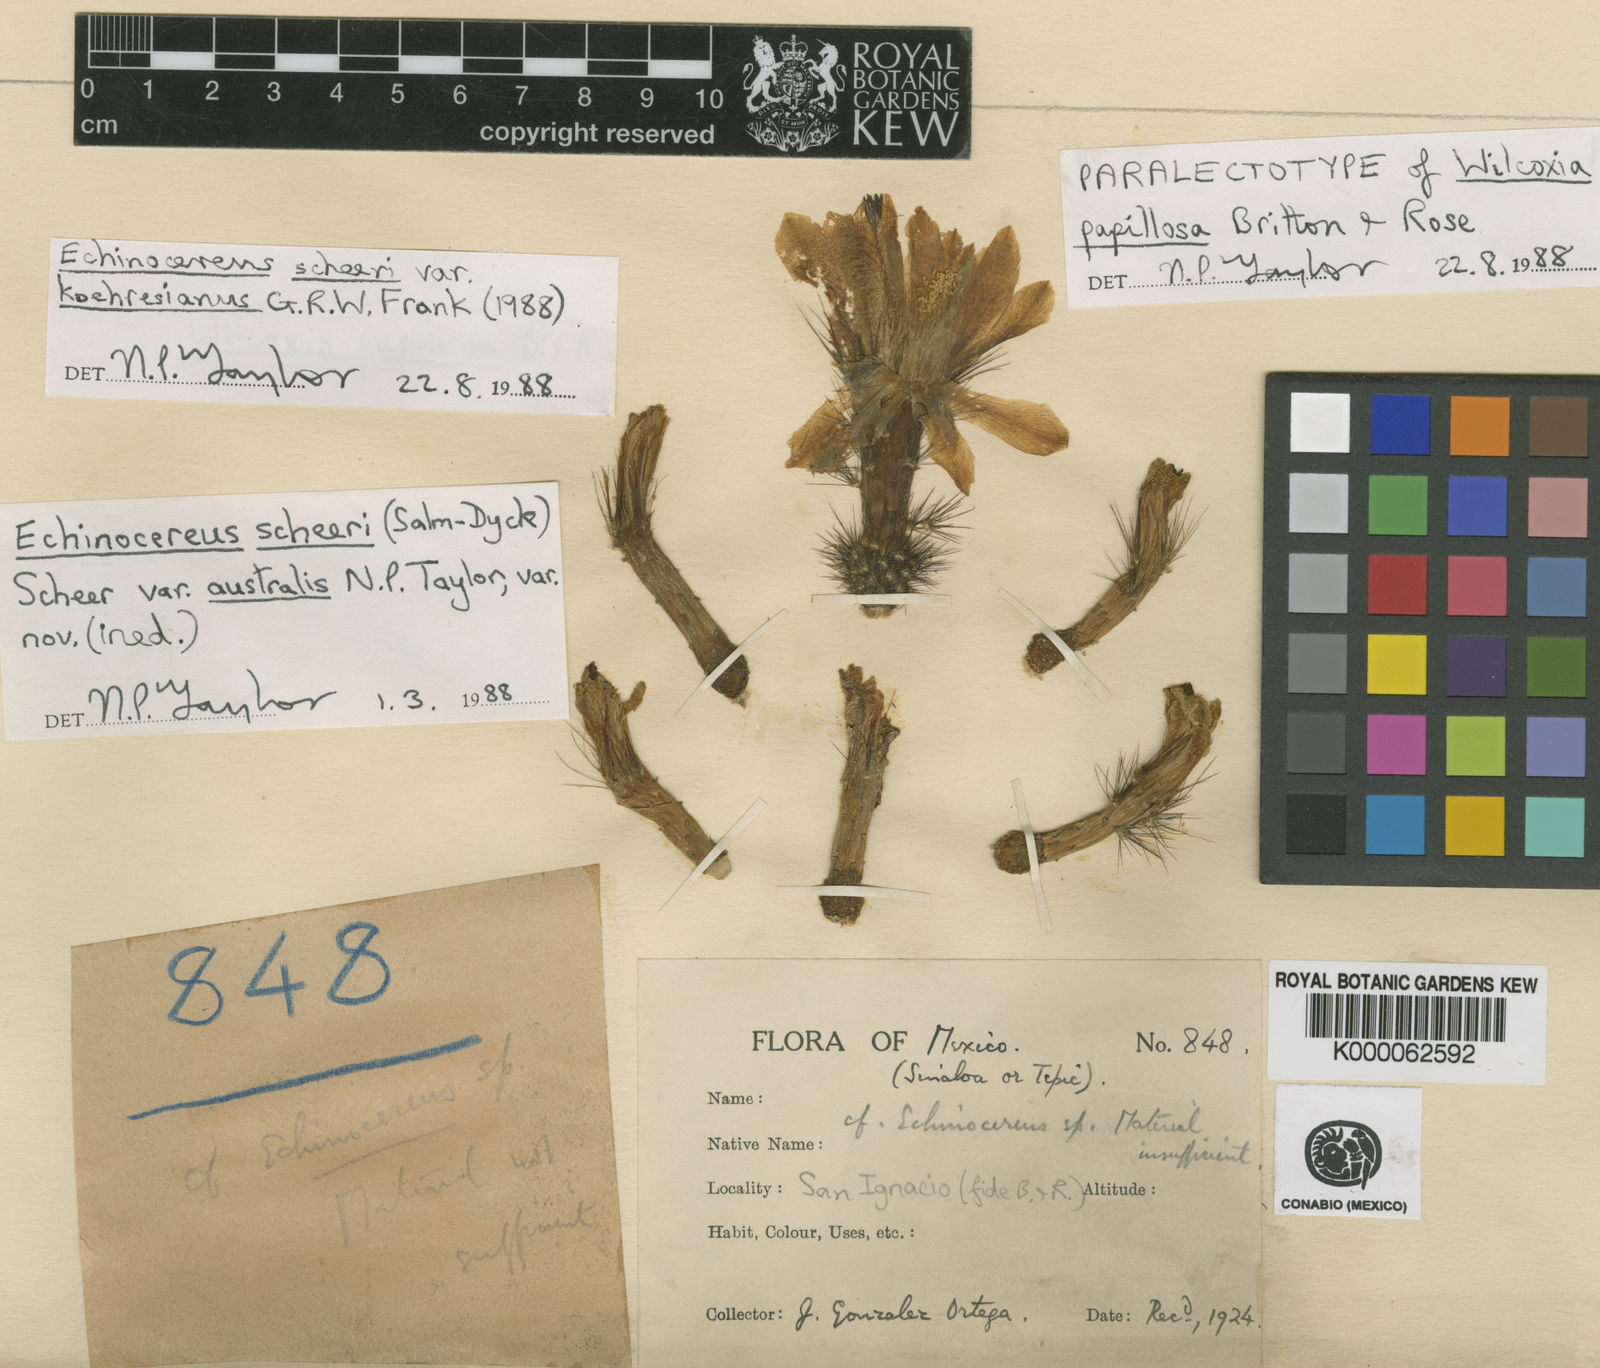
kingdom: Plantae
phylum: Tracheophyta
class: Magnoliopsida
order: Caryophyllales
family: Cactaceae
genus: Peniocereus
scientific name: Peniocereus
